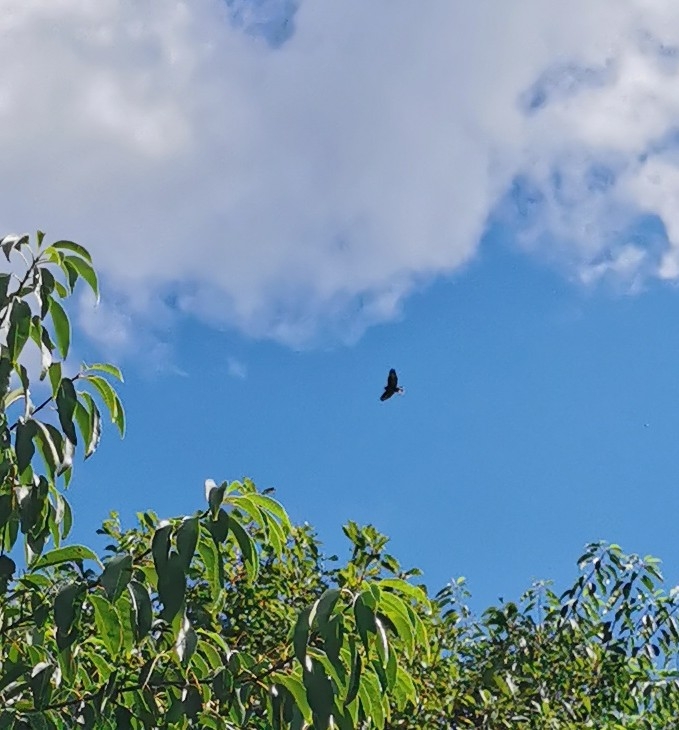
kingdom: Animalia
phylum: Chordata
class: Aves
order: Accipitriformes
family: Accipitridae
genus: Buteo
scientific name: Buteo buteo
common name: Musvåge
